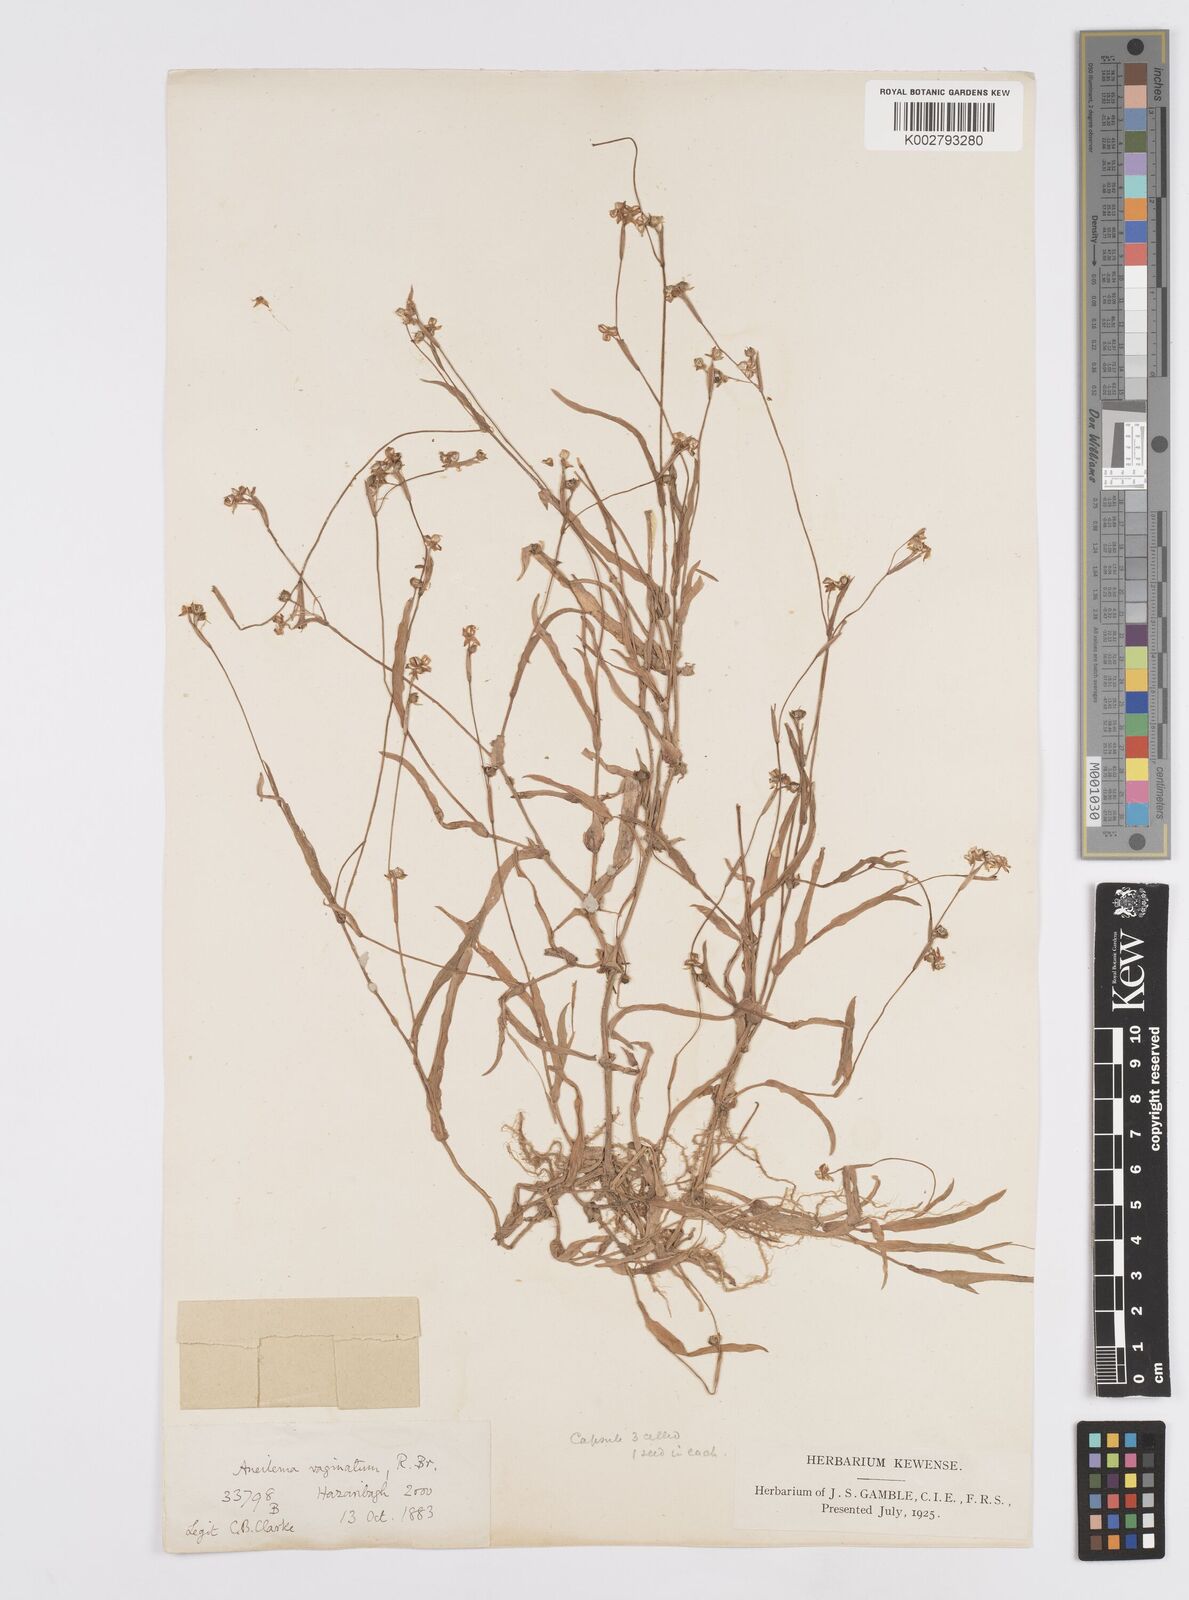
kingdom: Plantae
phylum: Tracheophyta
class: Liliopsida
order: Commelinales
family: Commelinaceae
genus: Murdannia
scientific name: Murdannia
